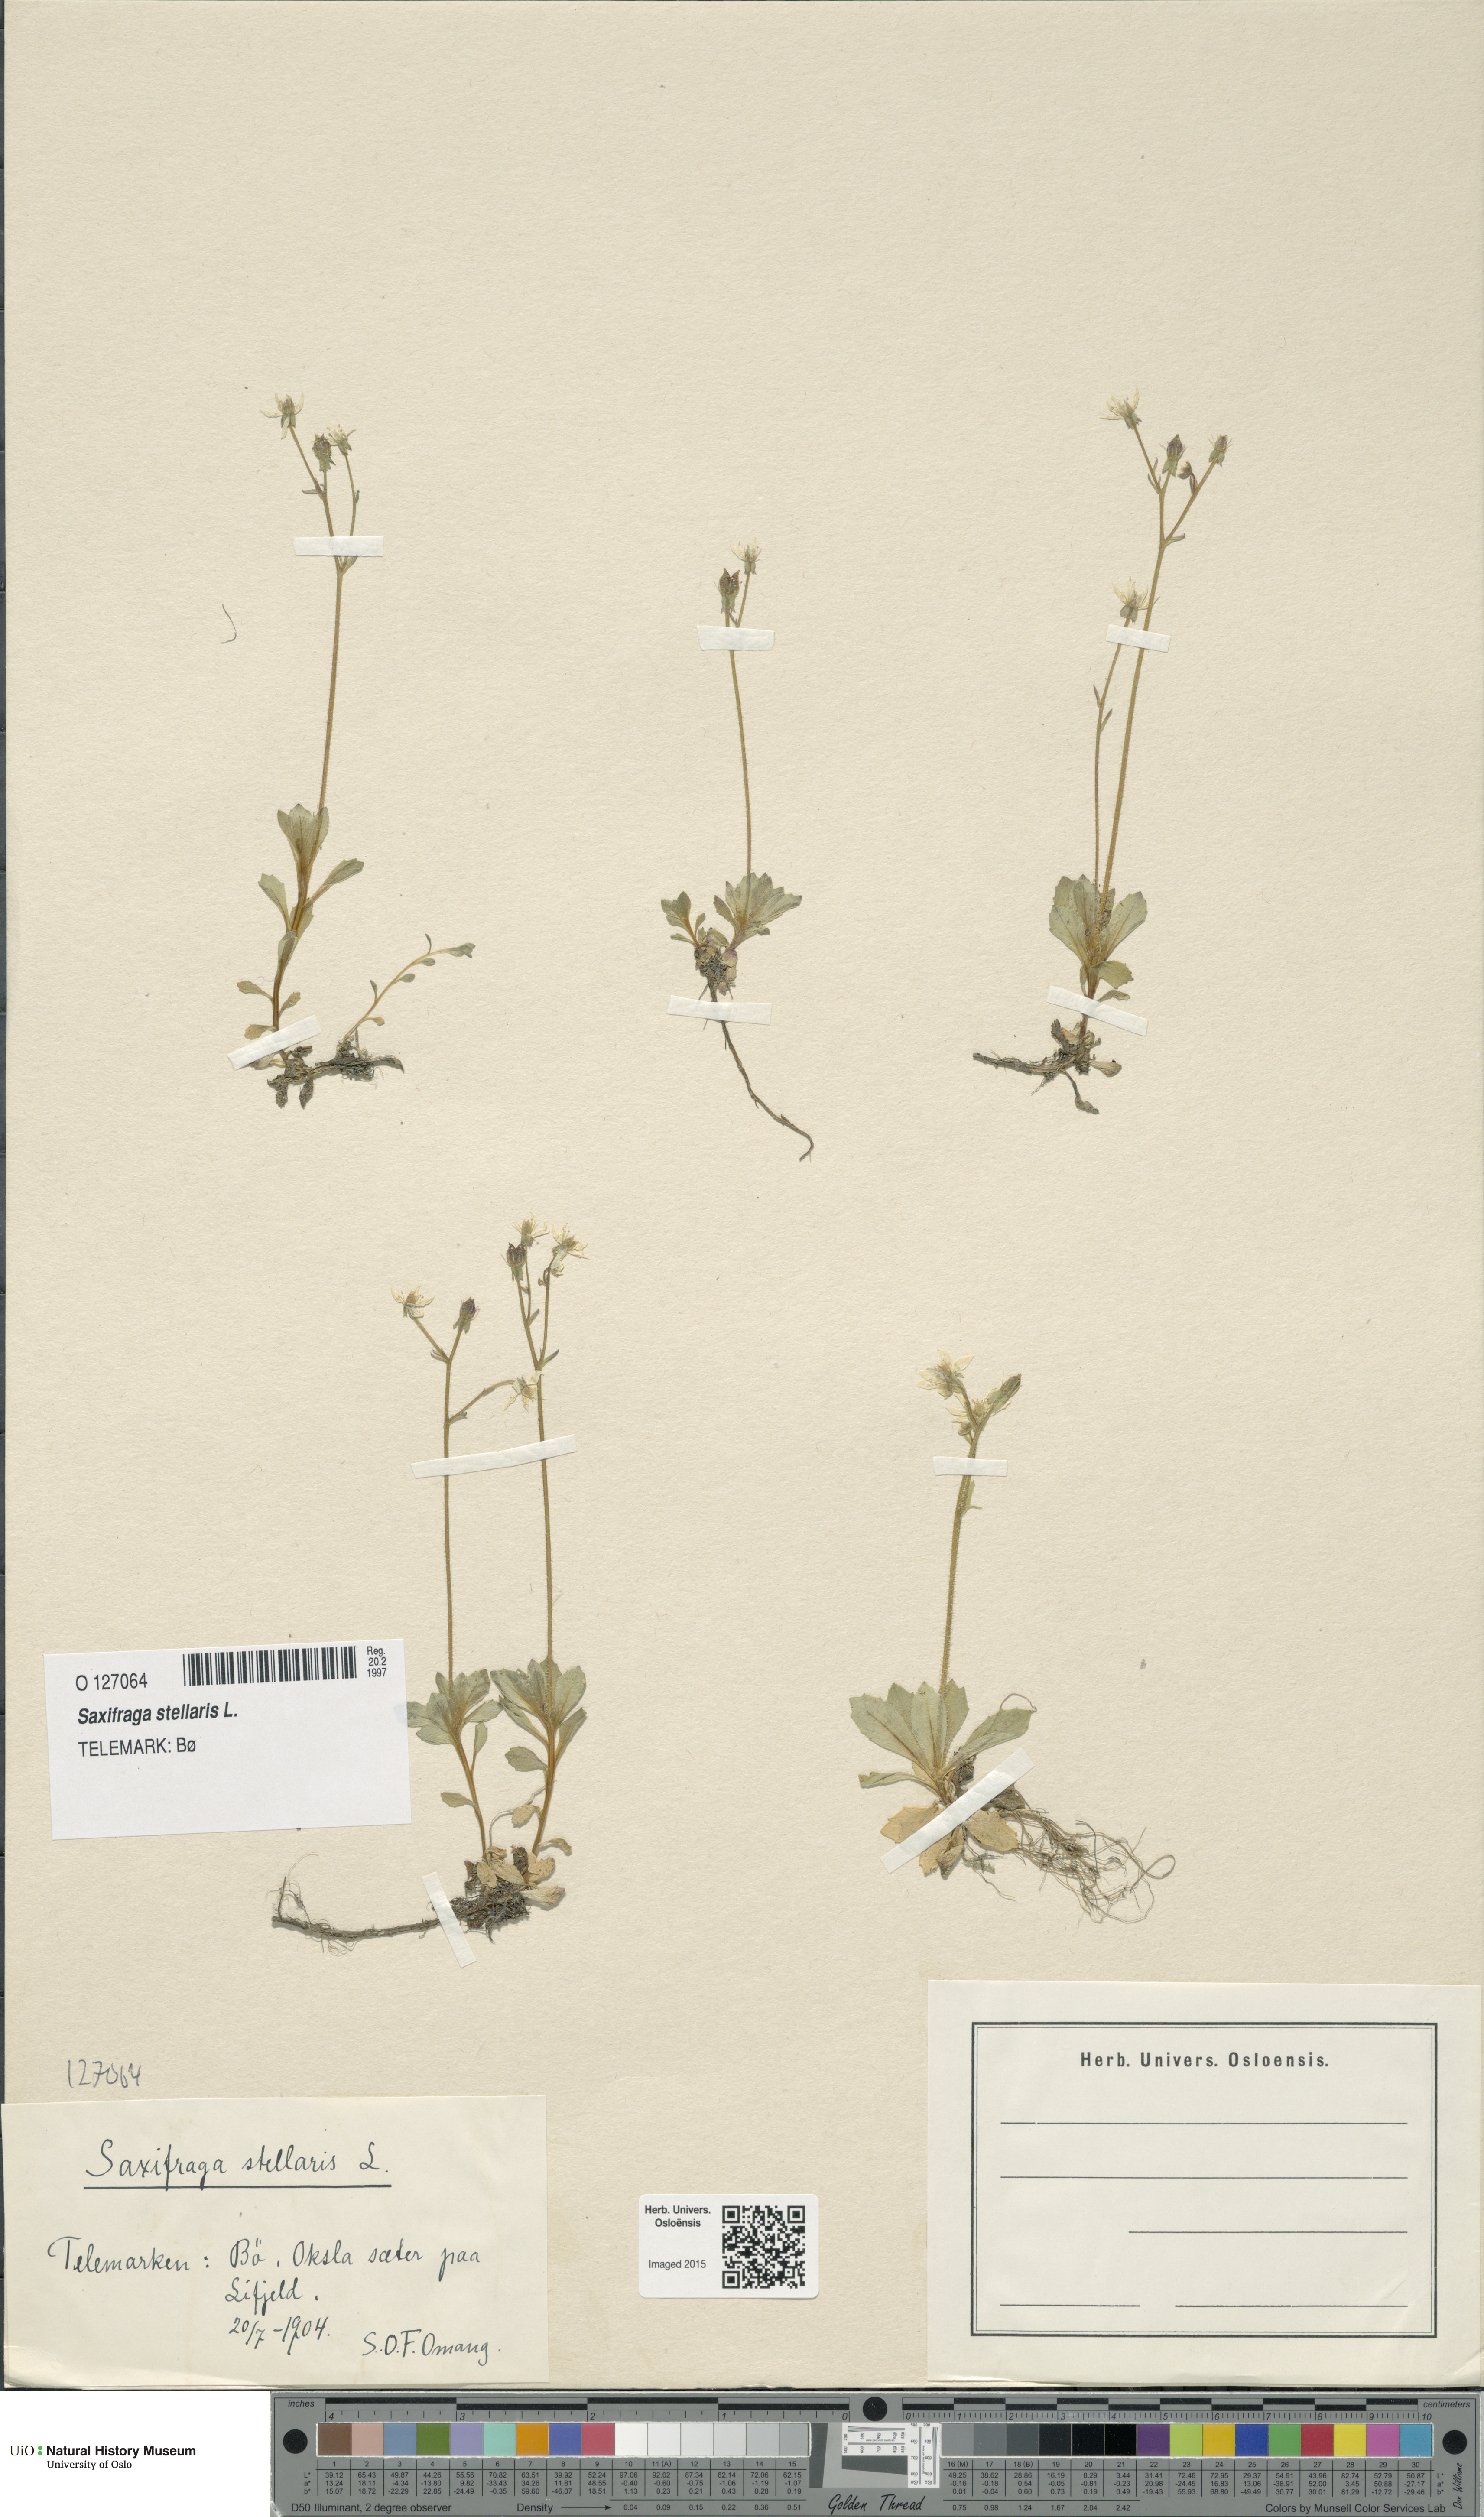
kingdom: Plantae
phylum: Tracheophyta
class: Magnoliopsida
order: Saxifragales
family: Saxifragaceae
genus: Micranthes
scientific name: Micranthes stellaris
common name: Starry saxifrage
